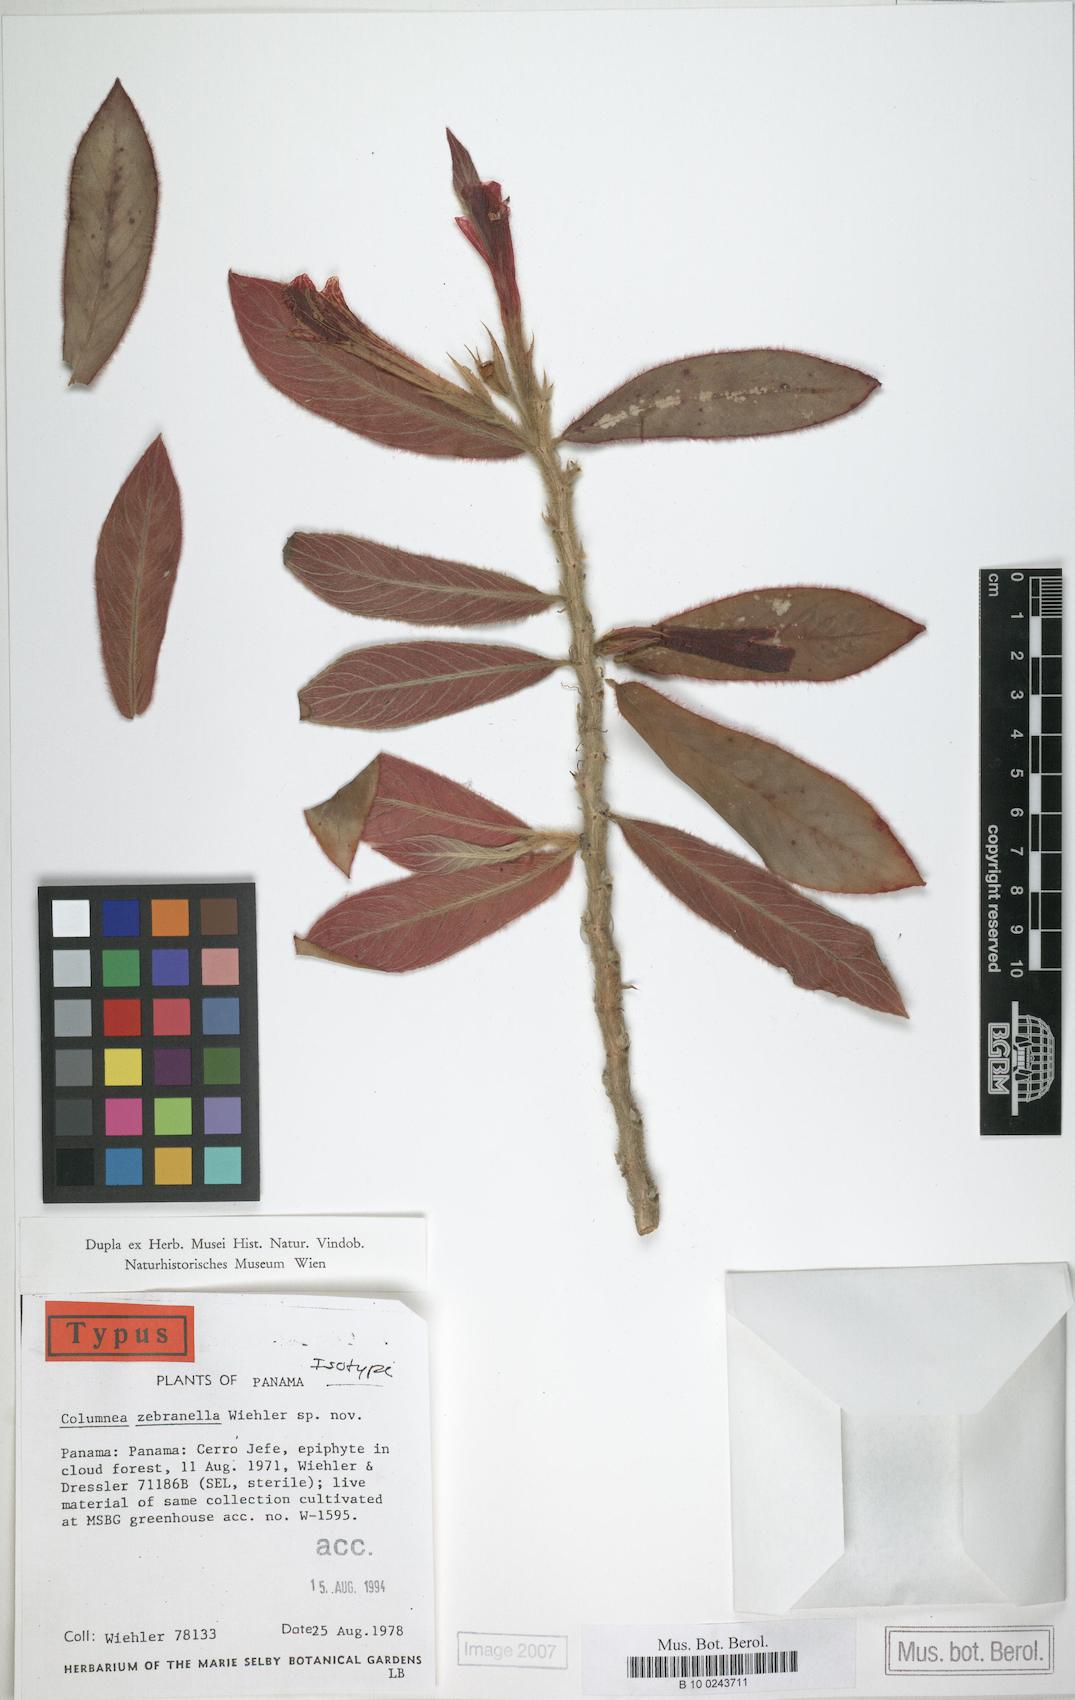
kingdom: Plantae
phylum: Tracheophyta
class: Magnoliopsida
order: Lamiales
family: Gesneriaceae
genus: Columnea
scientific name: Columnea zebranella
